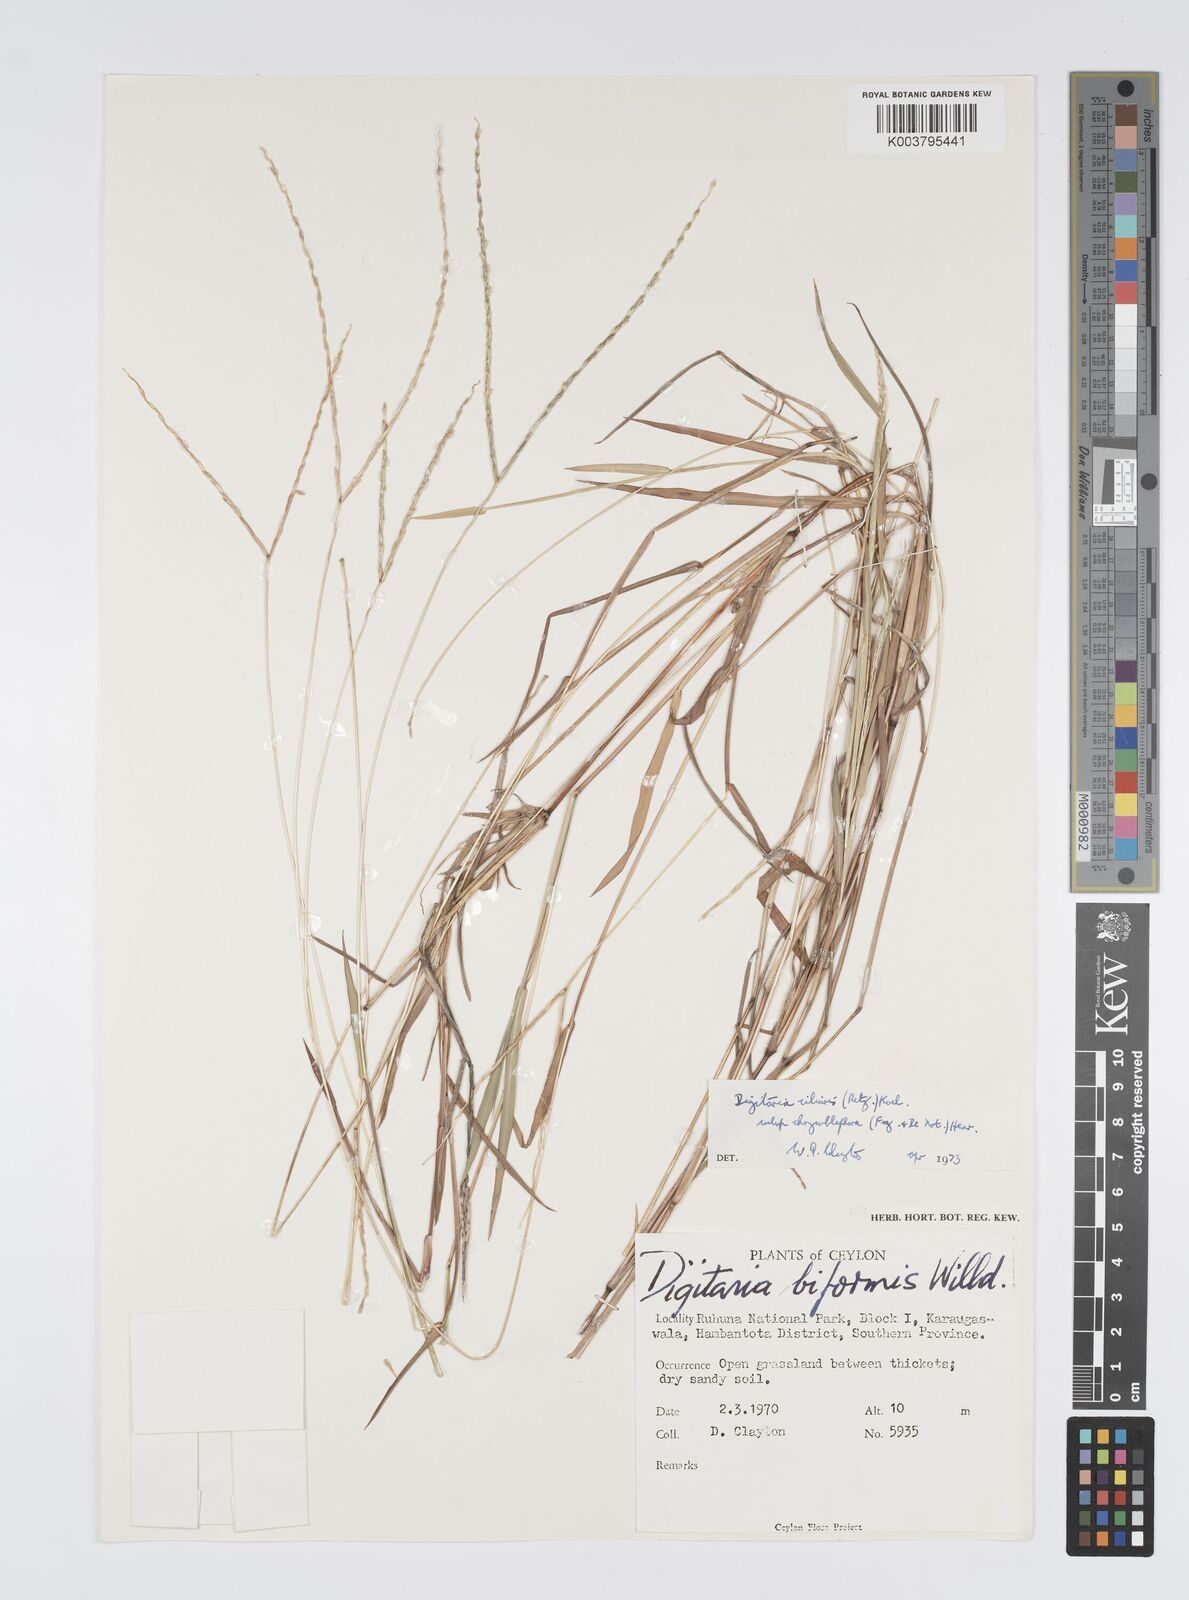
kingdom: Plantae
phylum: Tracheophyta
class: Liliopsida
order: Poales
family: Poaceae
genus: Digitaria
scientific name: Digitaria bicornis
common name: Asian crabgrass
